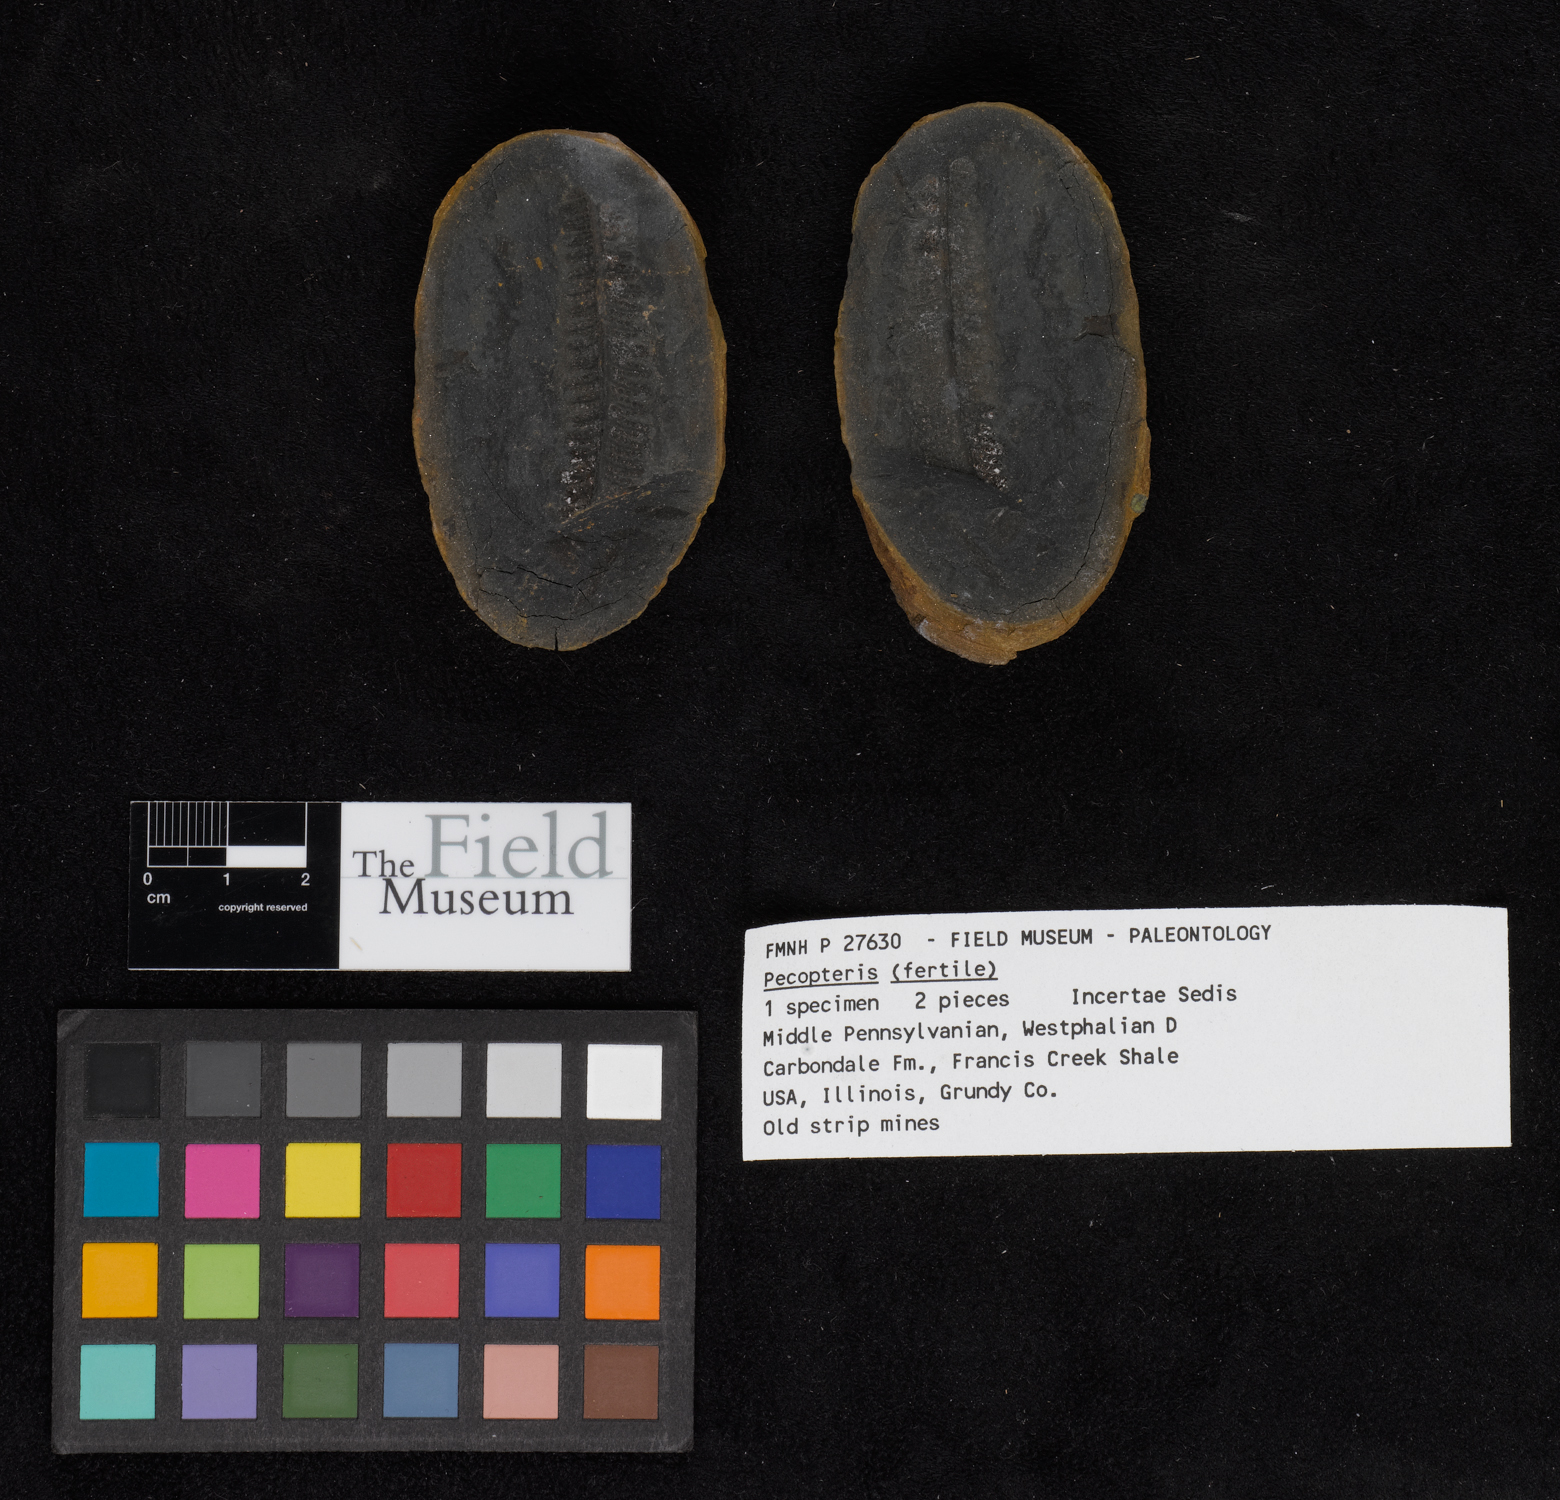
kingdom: Plantae
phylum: Tracheophyta
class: Polypodiopsida
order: Marattiales
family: Asterothecaceae
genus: Pecopteris
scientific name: Pecopteris
